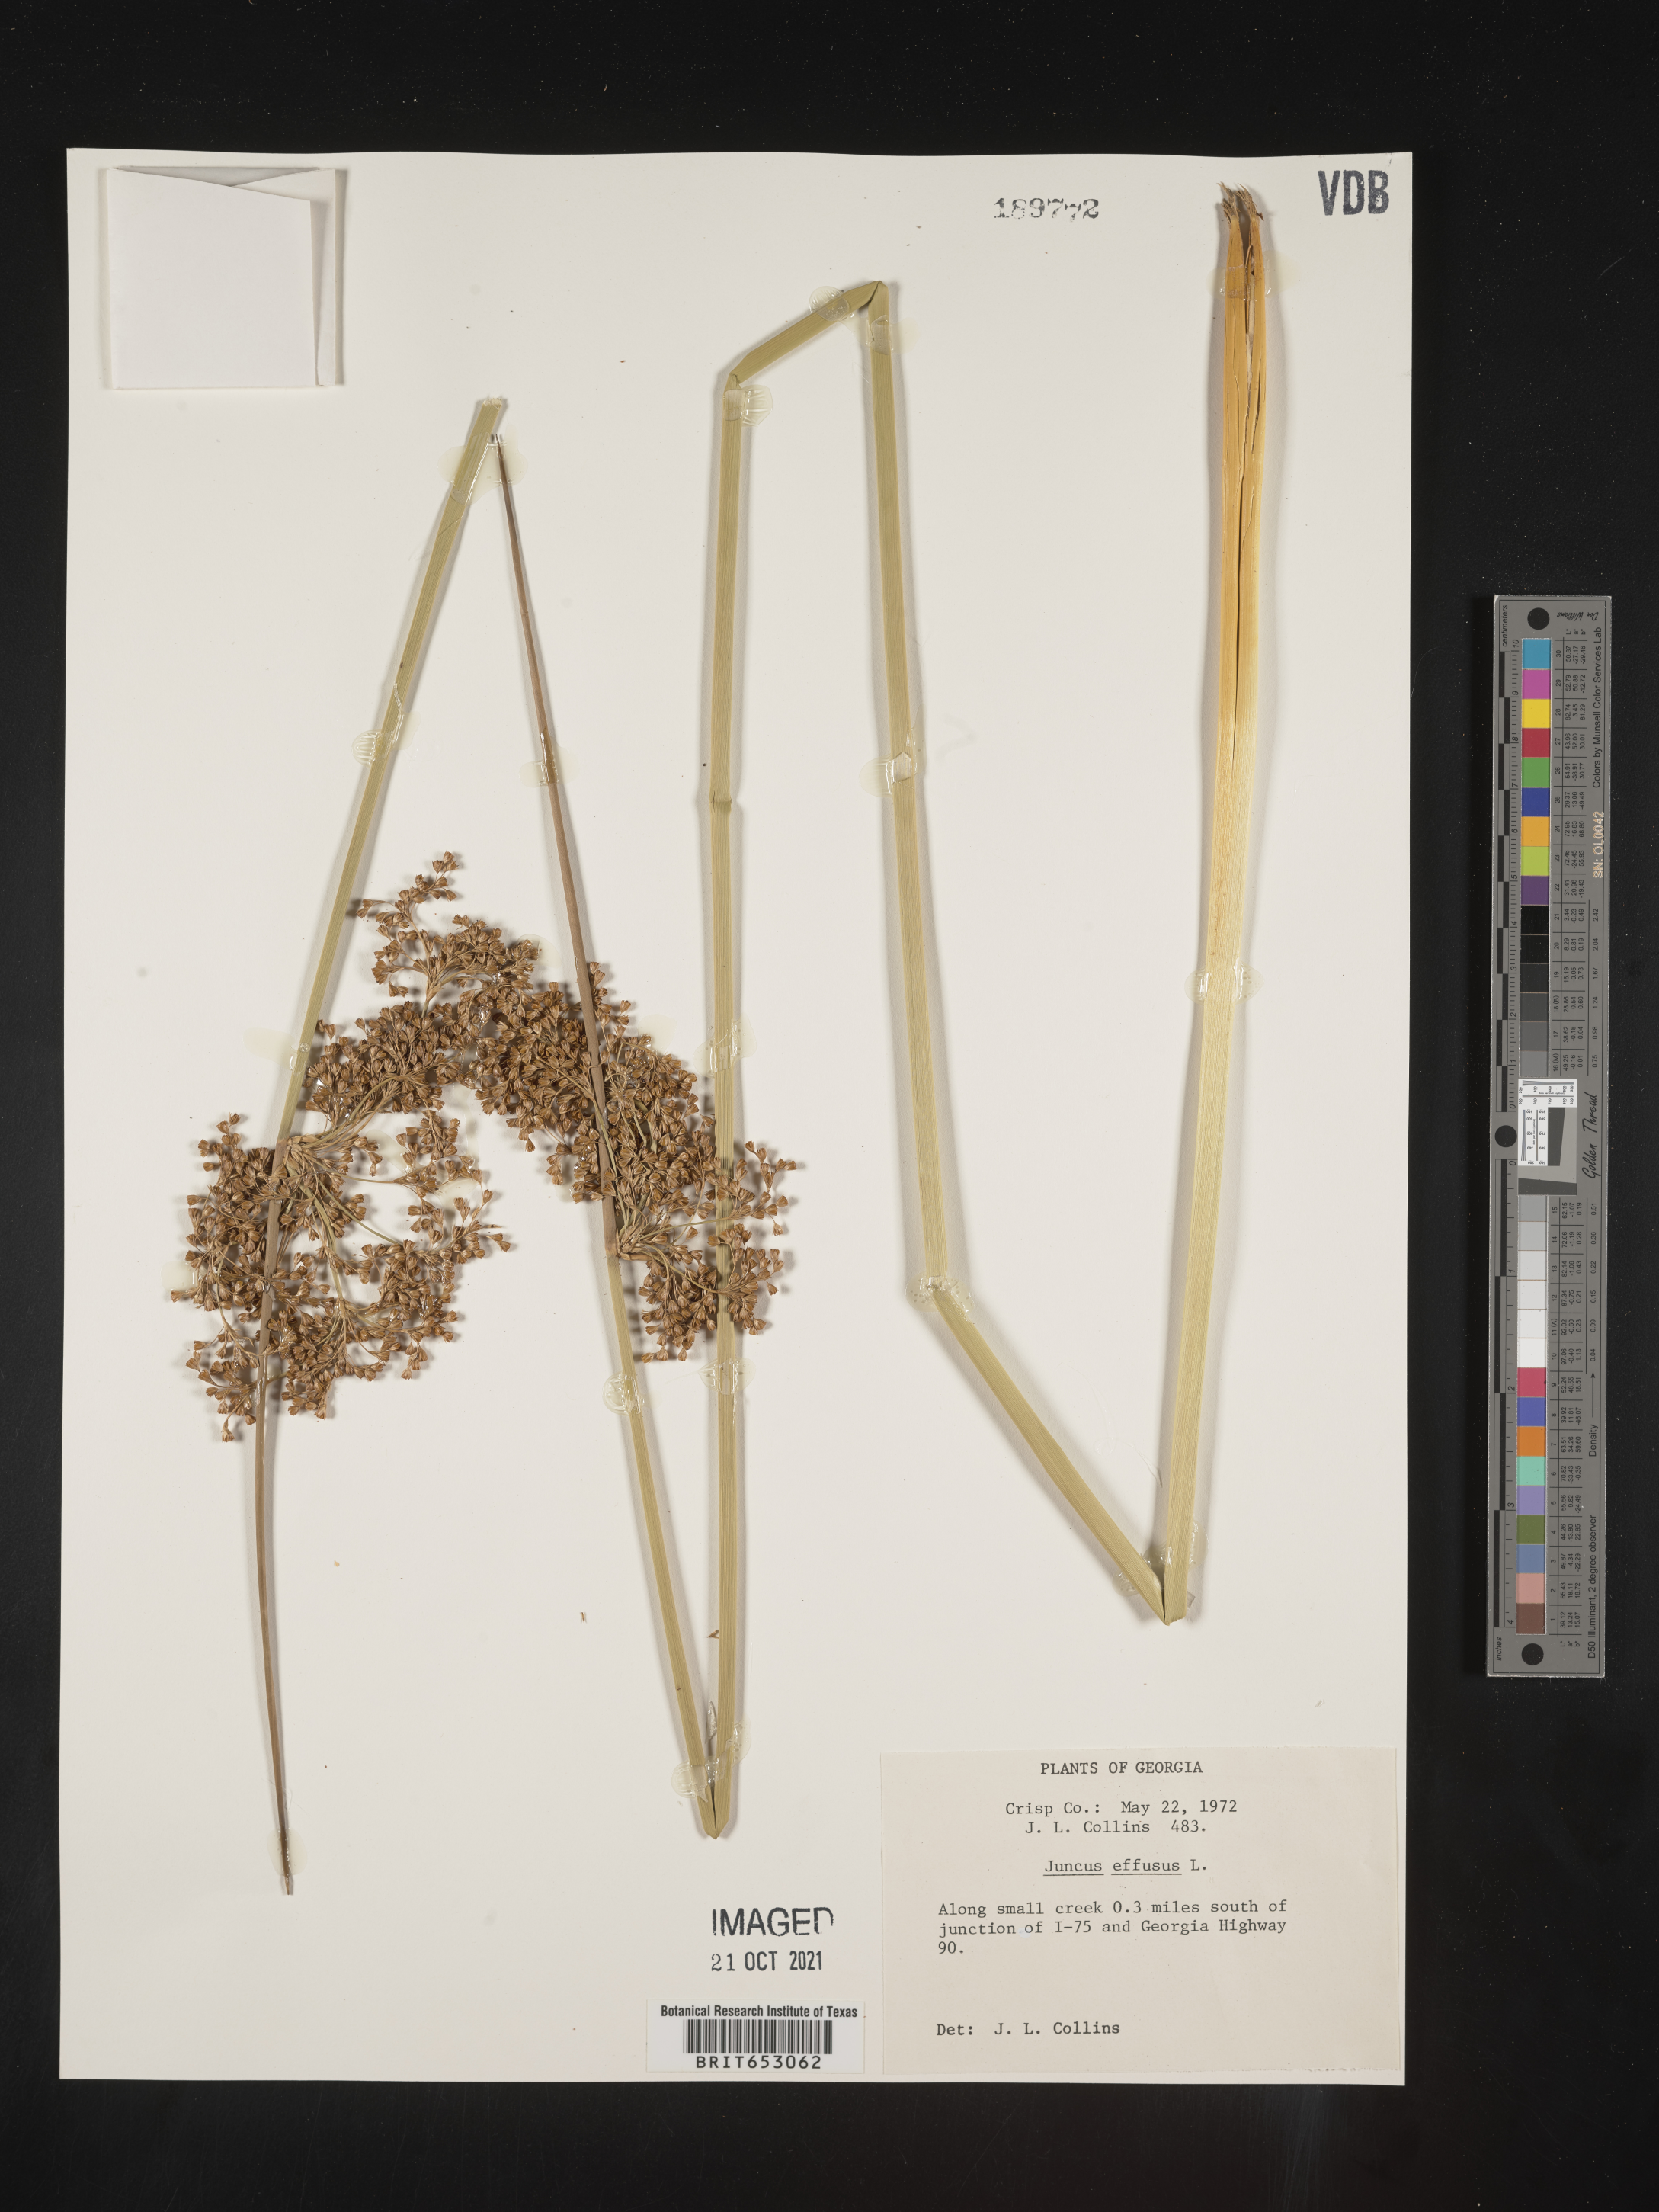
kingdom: Plantae
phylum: Tracheophyta
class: Liliopsida
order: Poales
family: Juncaceae
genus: Juncus
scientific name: Juncus effusus
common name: Soft rush
